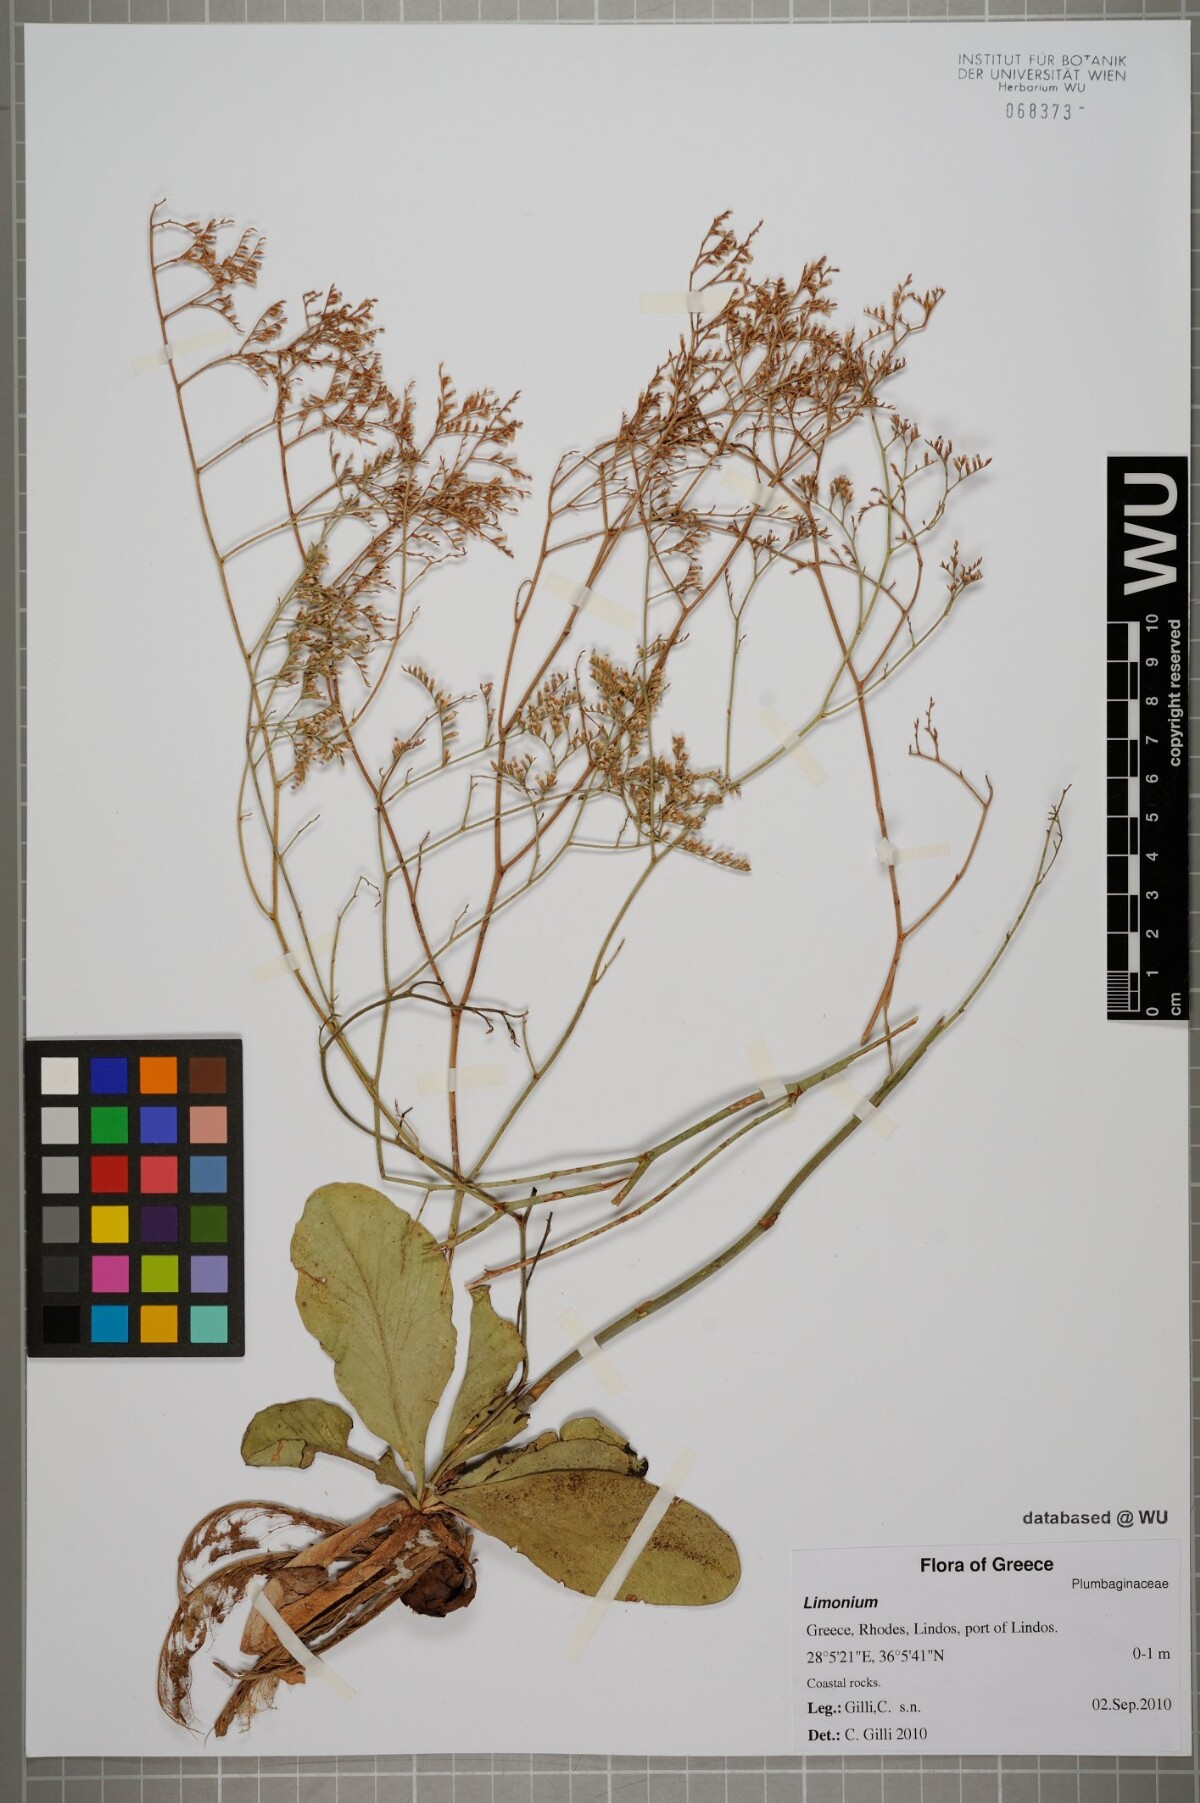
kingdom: Plantae
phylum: Tracheophyta
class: Magnoliopsida
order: Caryophyllales
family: Plumbaginaceae
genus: Limonium
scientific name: Limonium
